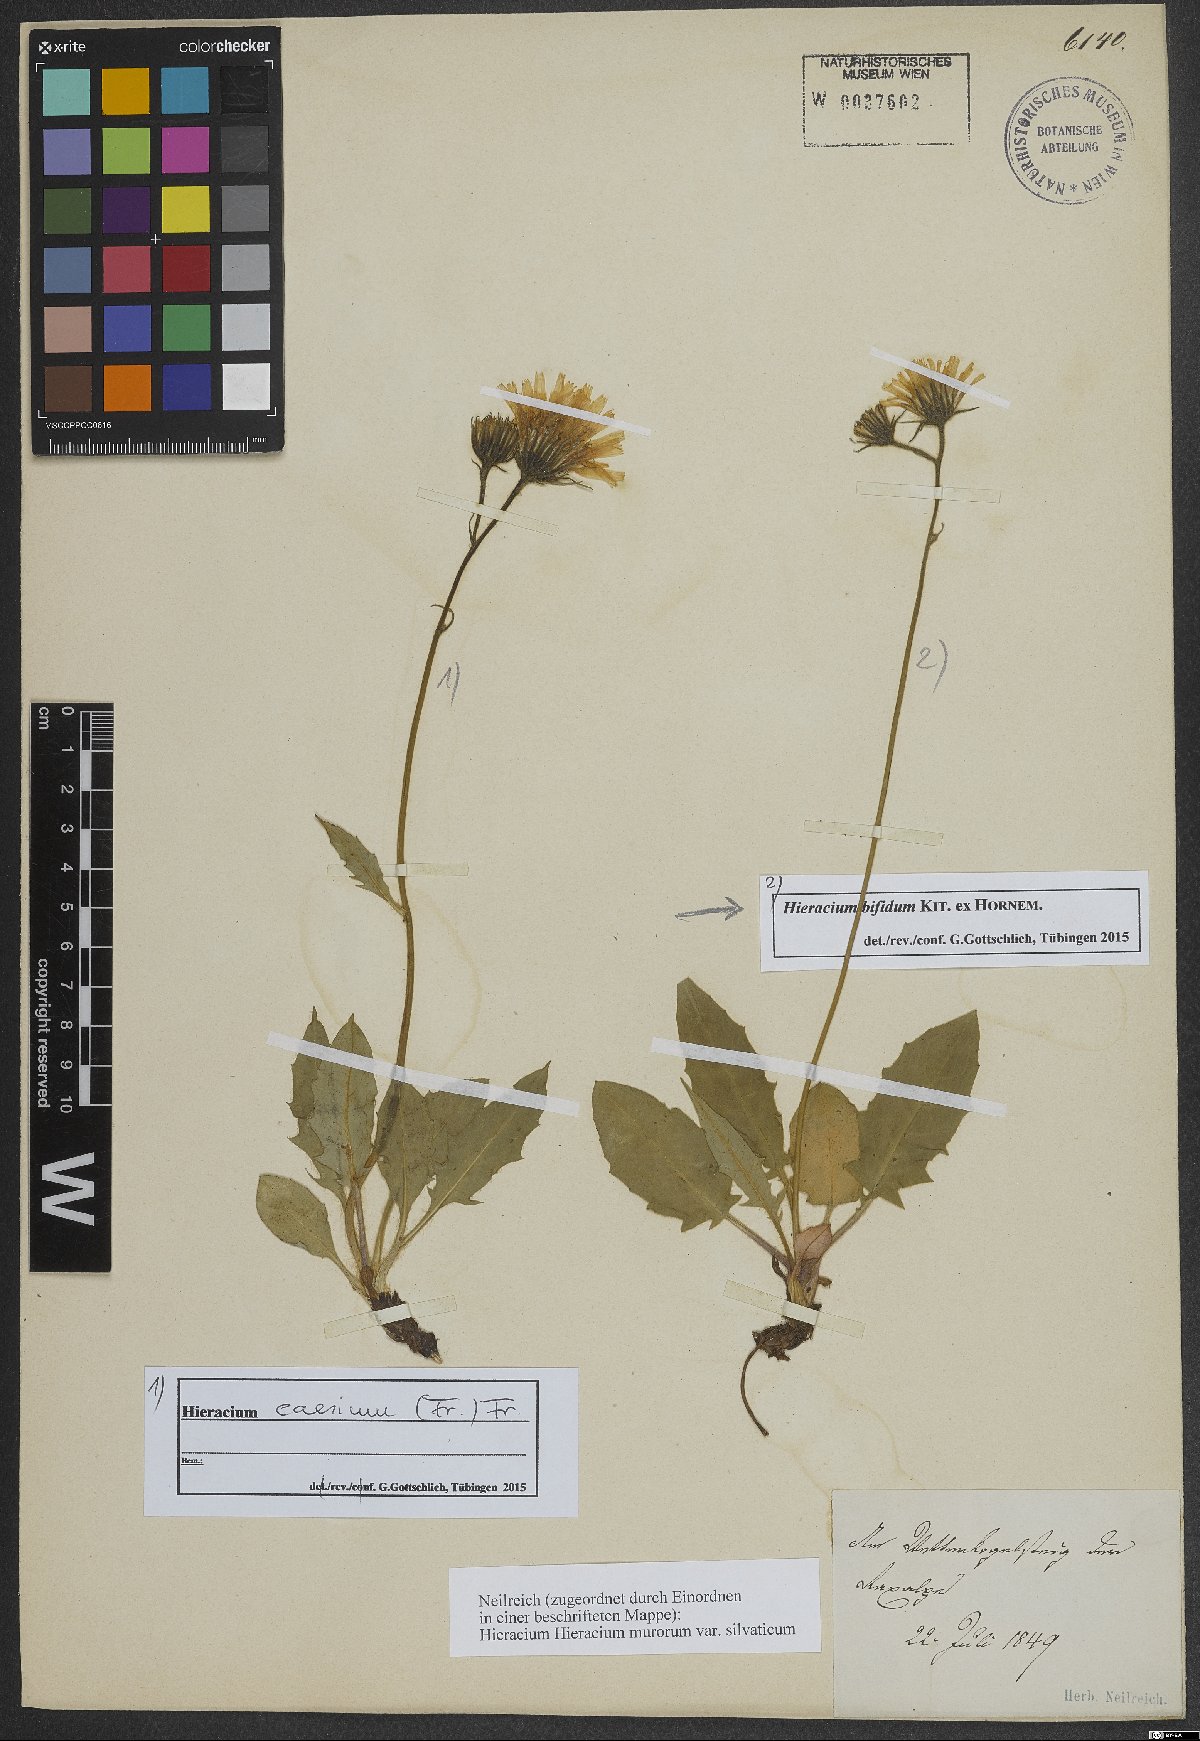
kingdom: Plantae
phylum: Tracheophyta
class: Magnoliopsida
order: Asterales
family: Asteraceae
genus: Hieracium
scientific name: Hieracium bifidum
